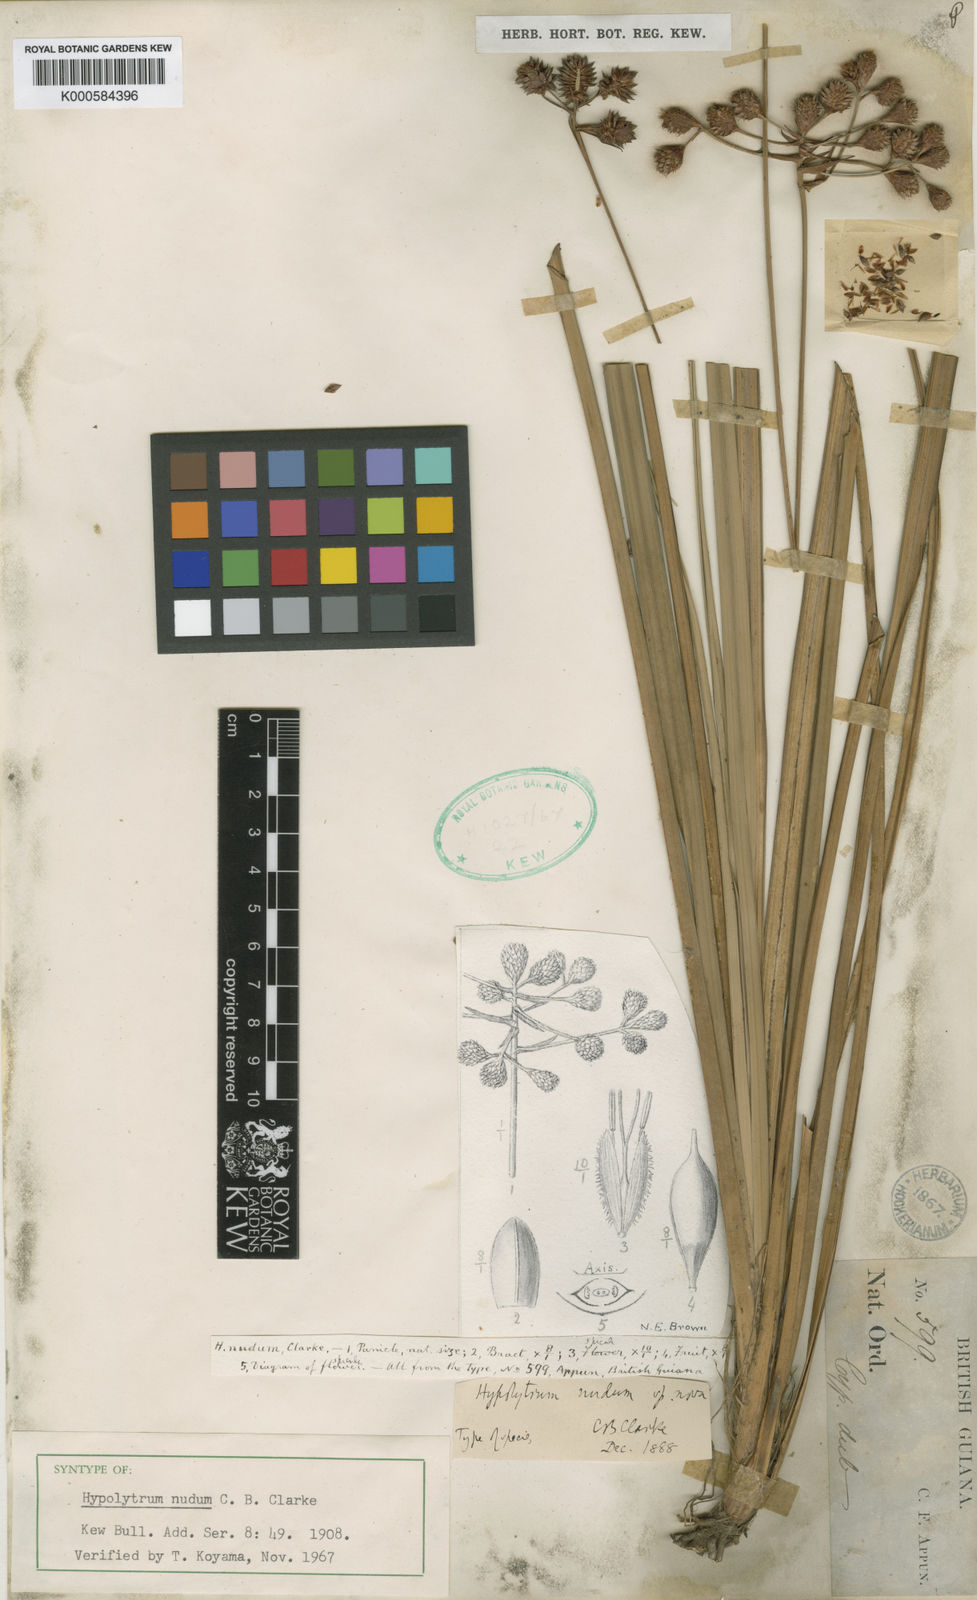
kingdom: Plantae
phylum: Tracheophyta
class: Liliopsida
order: Poales
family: Cyperaceae
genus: Hypolytrum
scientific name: Hypolytrum nudum
